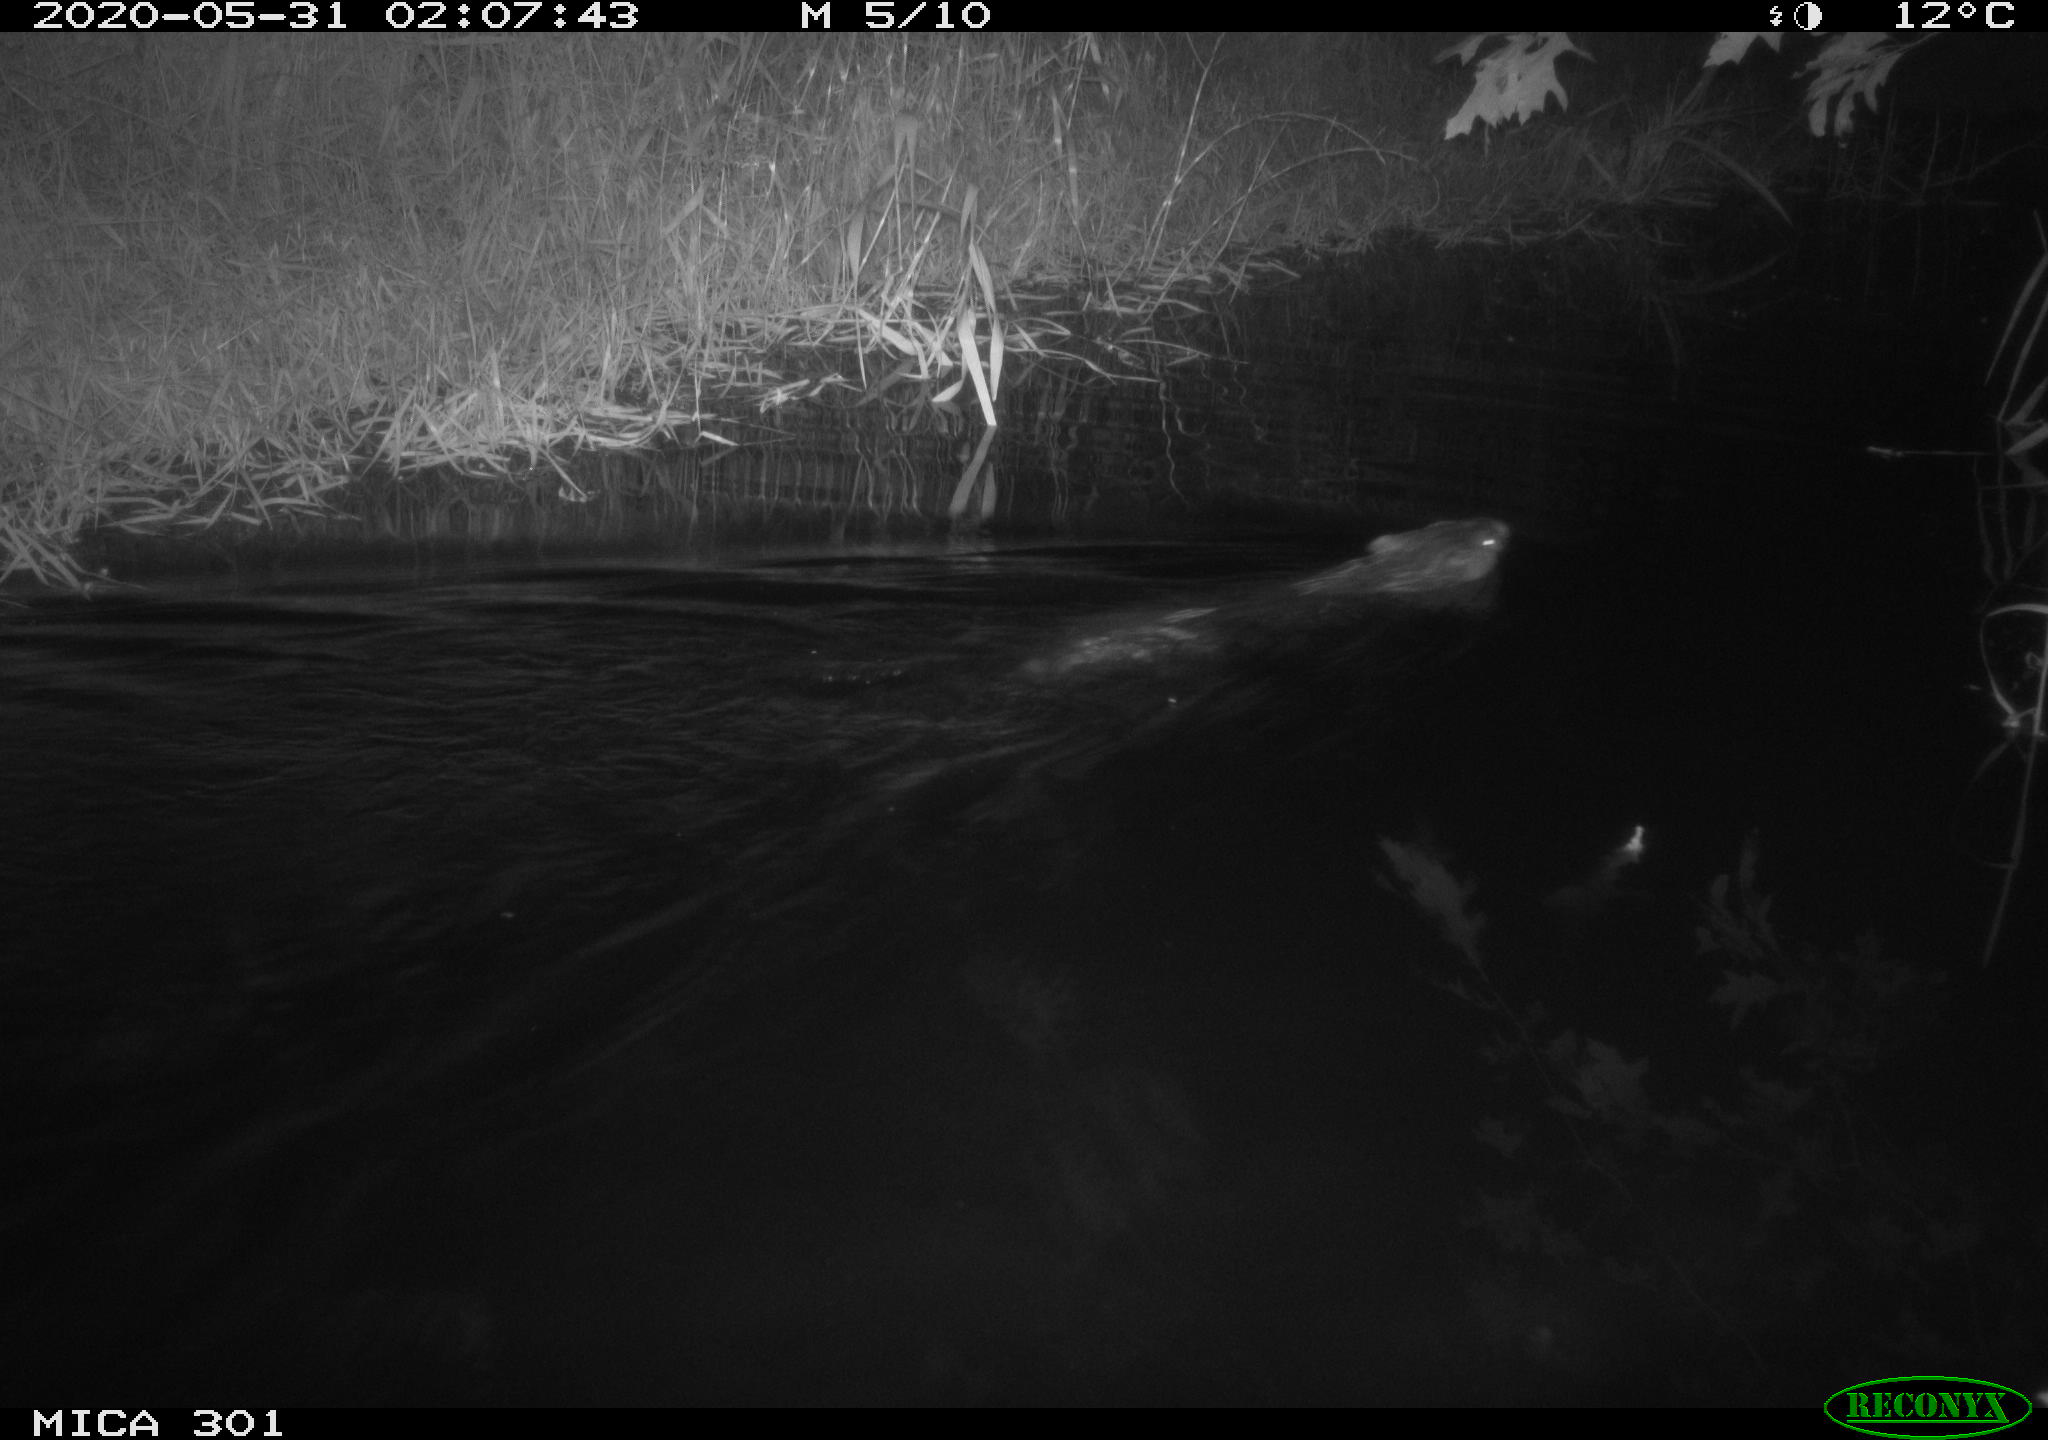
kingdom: Animalia
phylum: Chordata
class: Mammalia
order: Rodentia
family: Castoridae
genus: Castor
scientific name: Castor fiber
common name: Eurasian beaver
